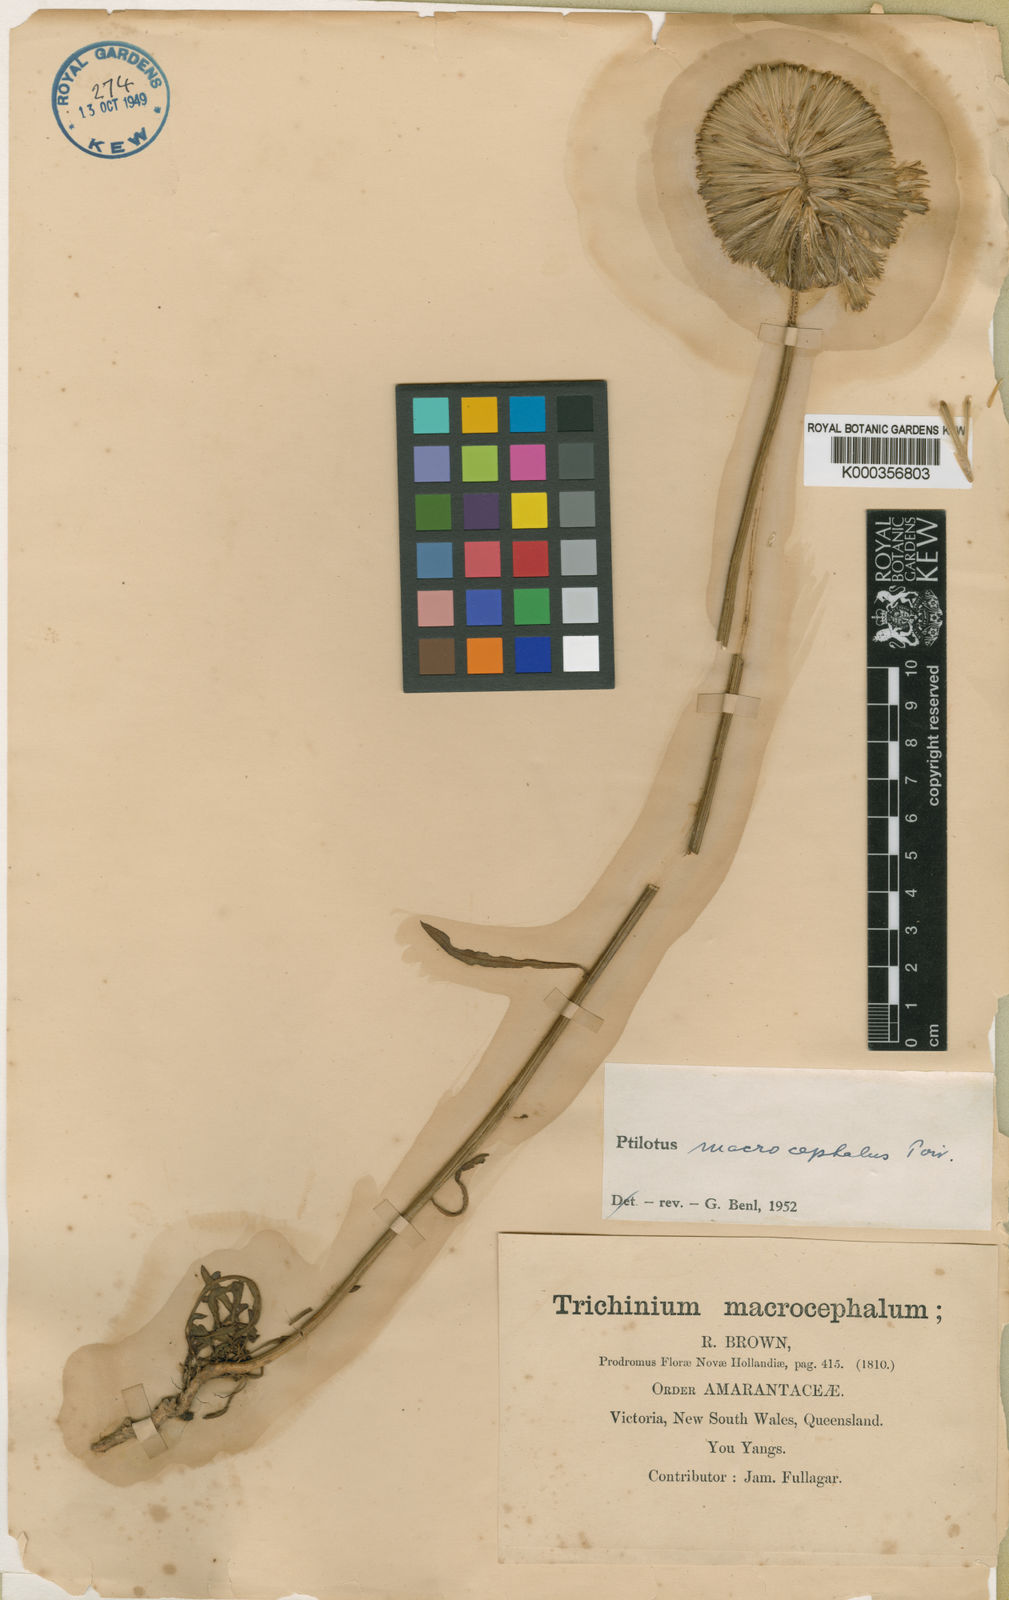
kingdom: Plantae
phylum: Tracheophyta
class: Magnoliopsida
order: Caryophyllales
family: Amaranthaceae
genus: Ptilotus
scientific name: Ptilotus macrocephalus
